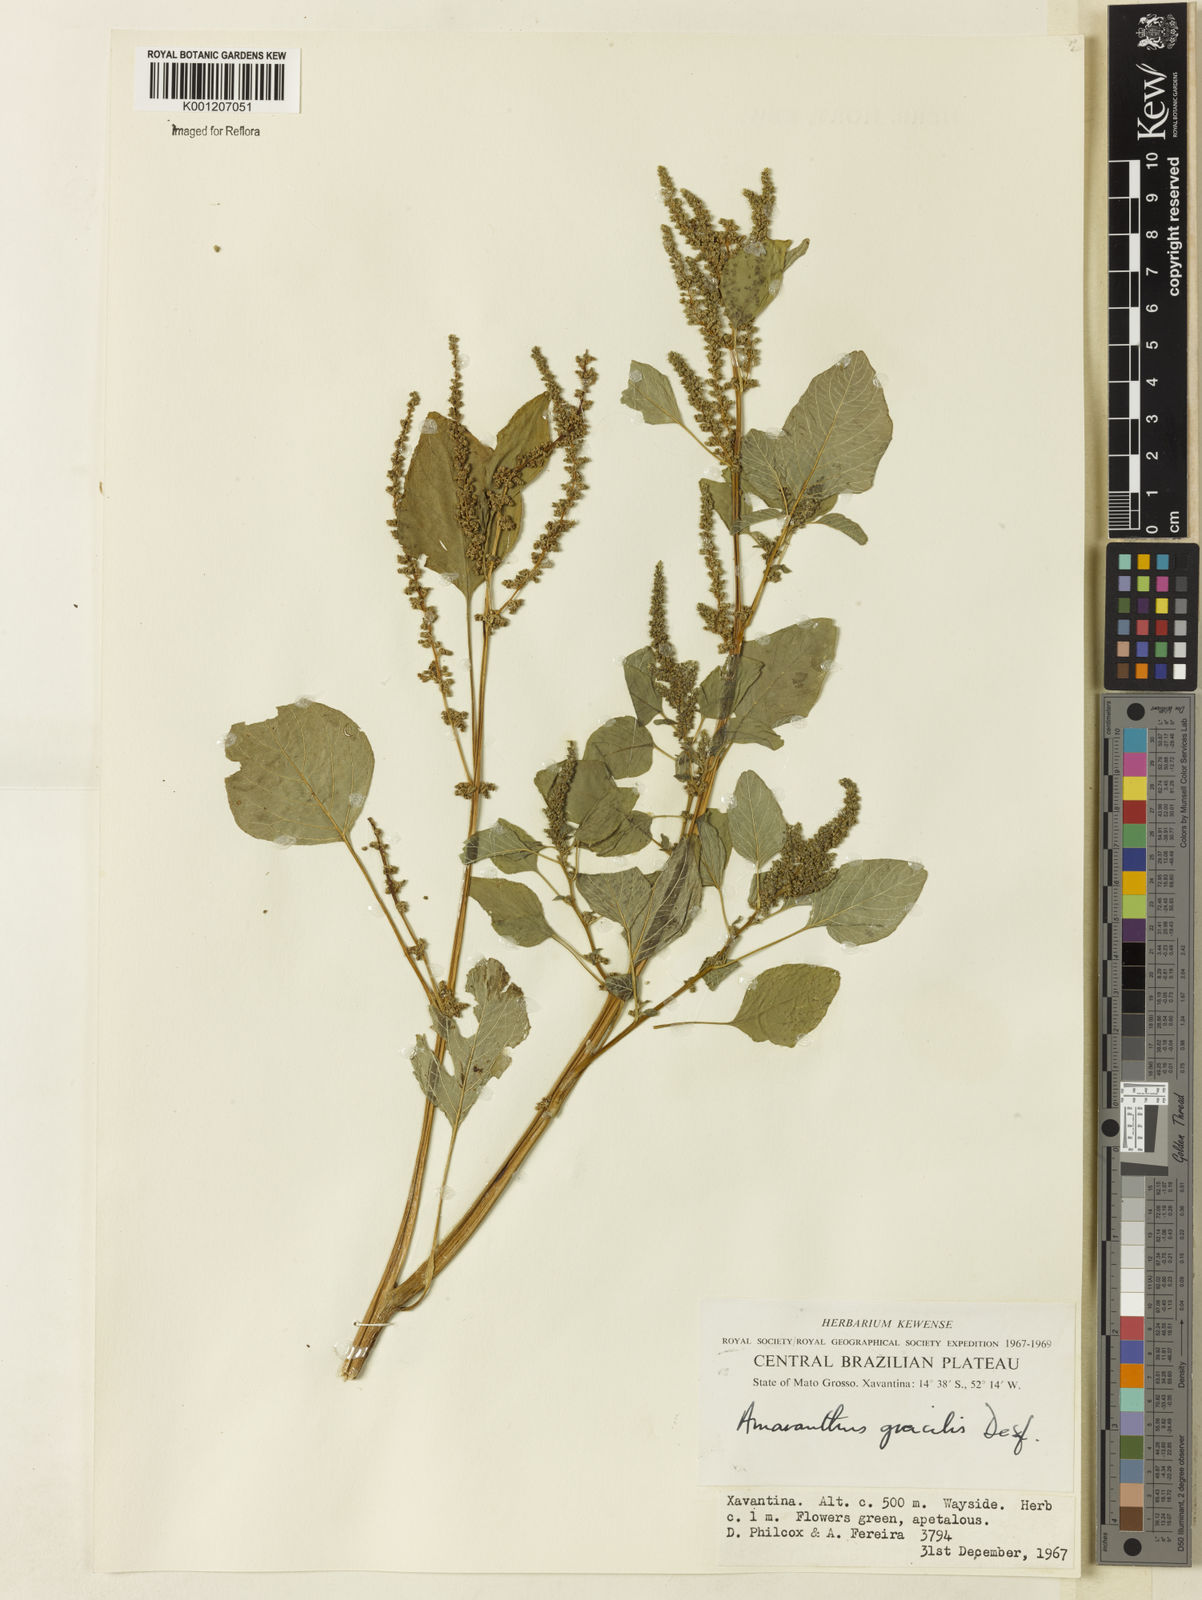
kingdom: Plantae
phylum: Tracheophyta
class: Magnoliopsida
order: Caryophyllales
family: Amaranthaceae
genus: Amaranthus
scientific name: Amaranthus
